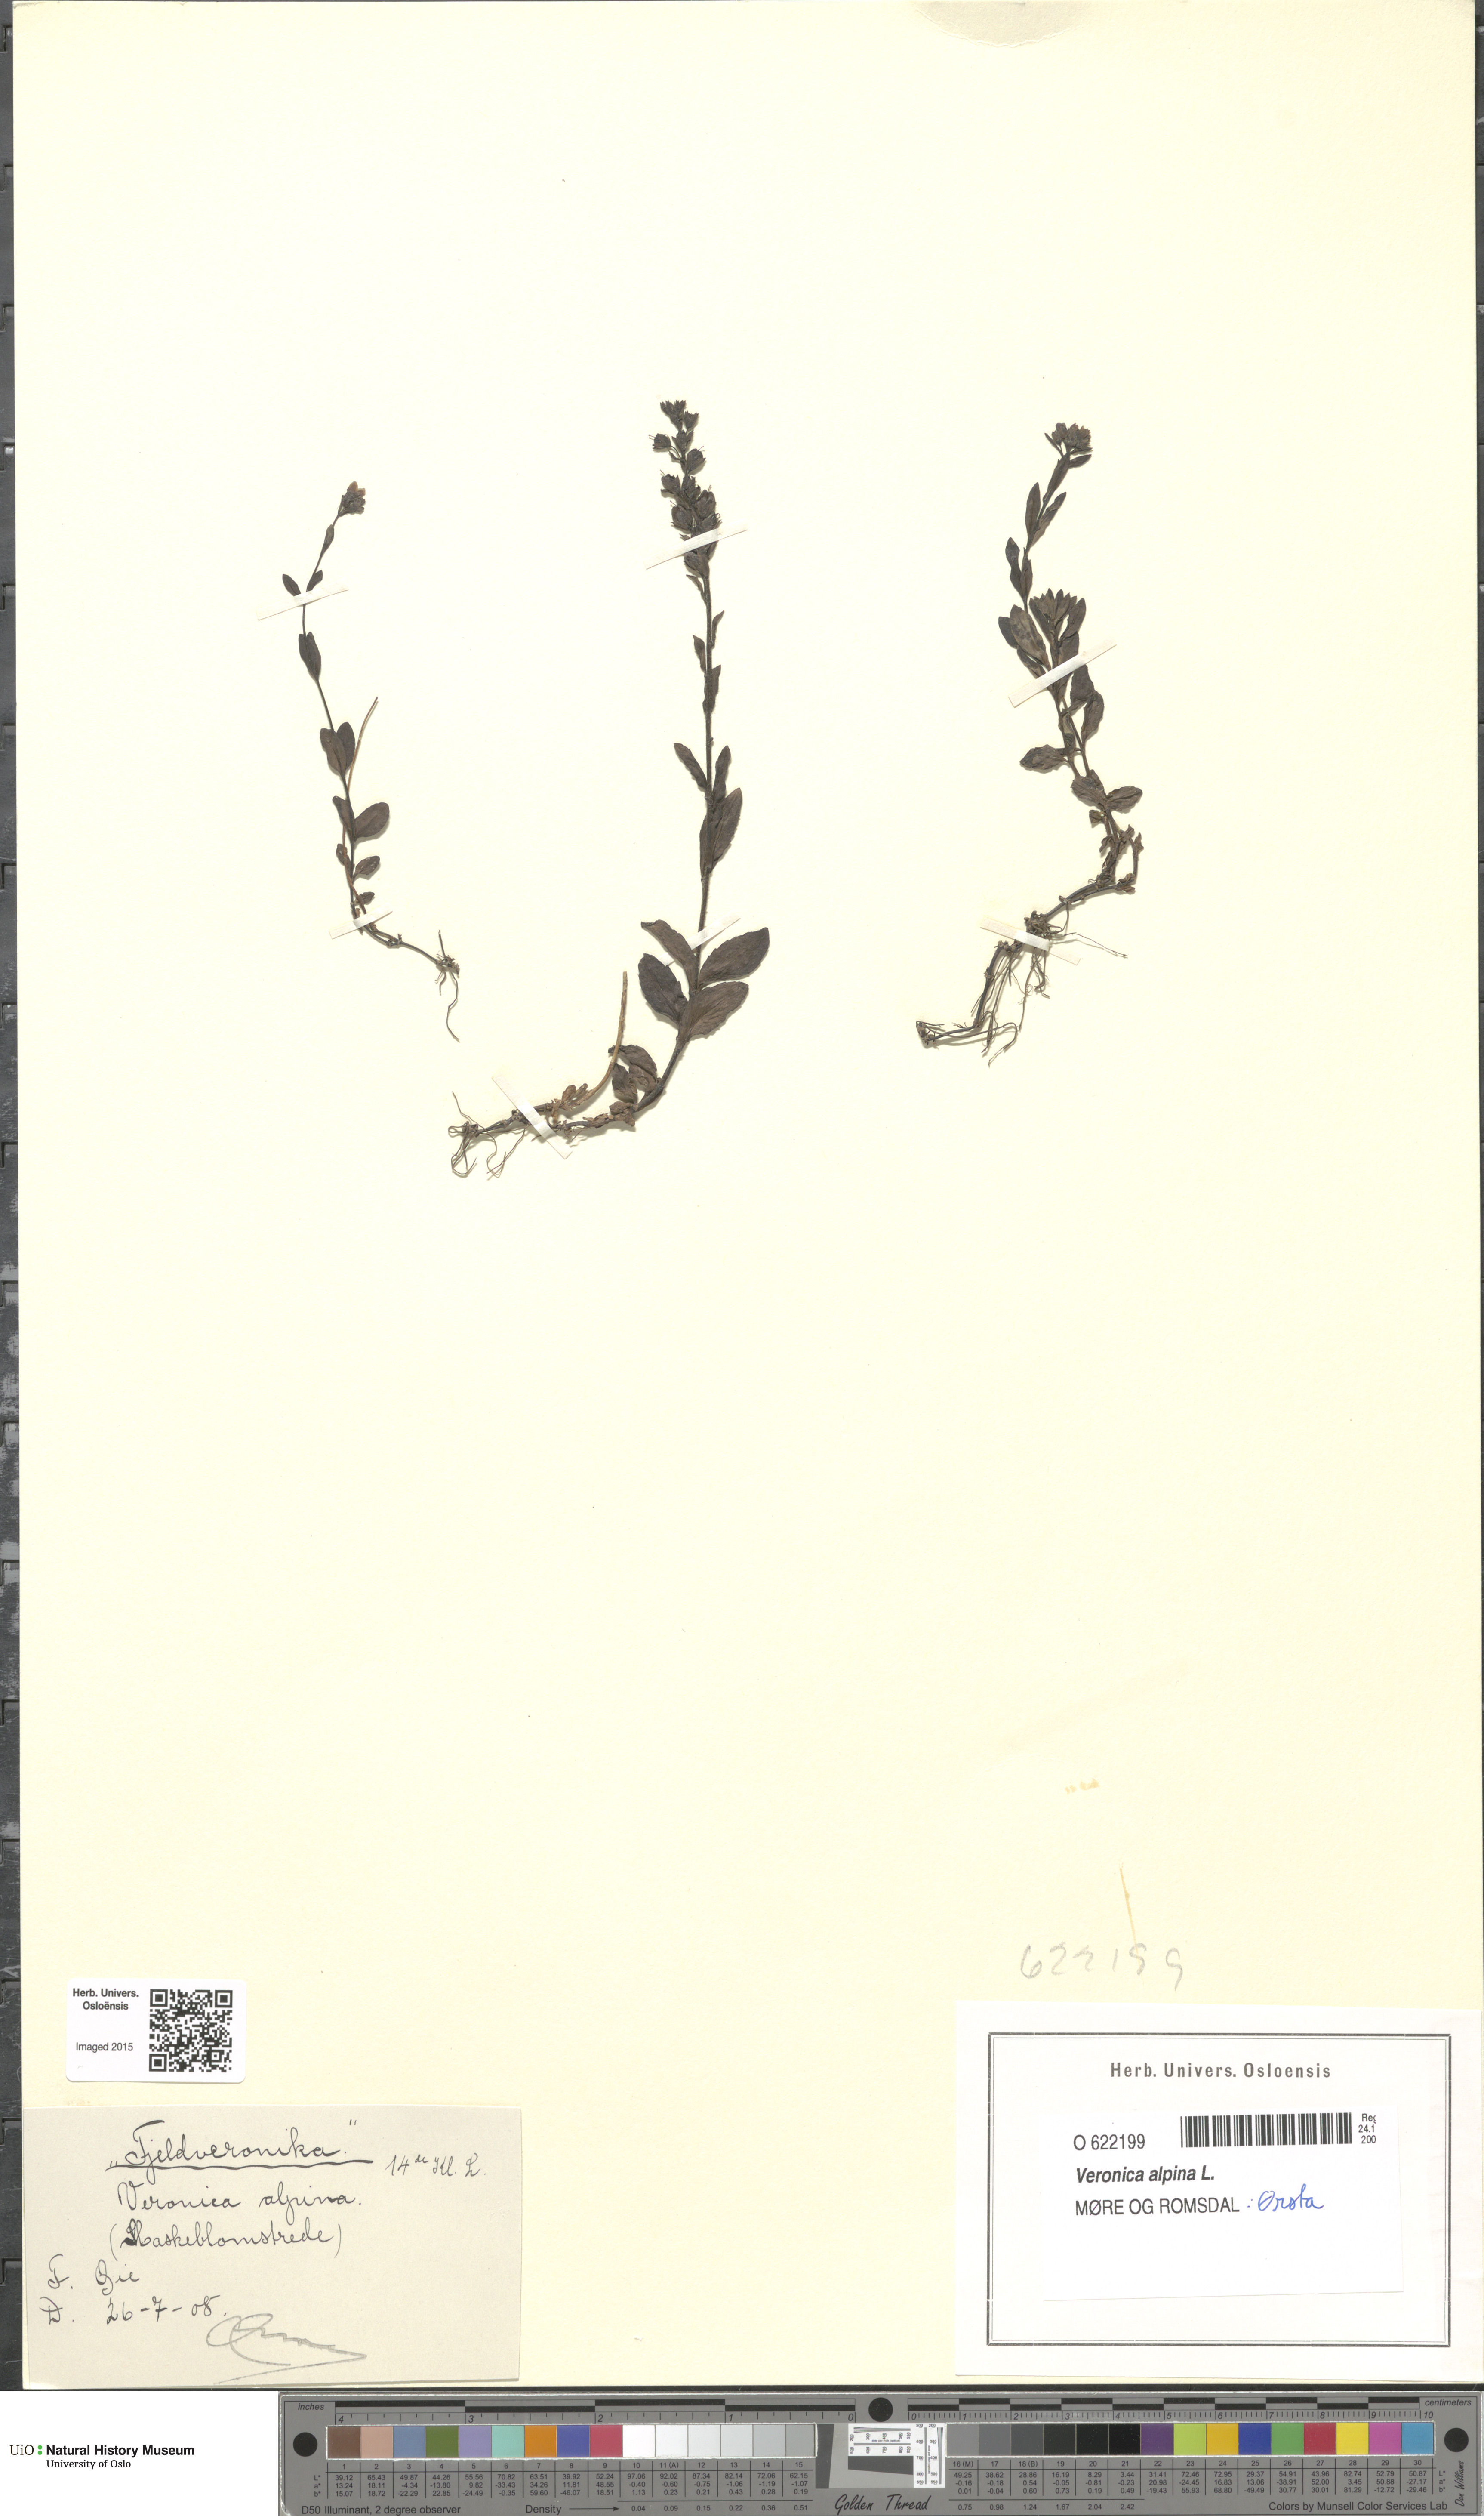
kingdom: Plantae
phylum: Tracheophyta
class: Magnoliopsida
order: Lamiales
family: Plantaginaceae
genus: Veronica
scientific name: Veronica alpina
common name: Alpine speedwell
